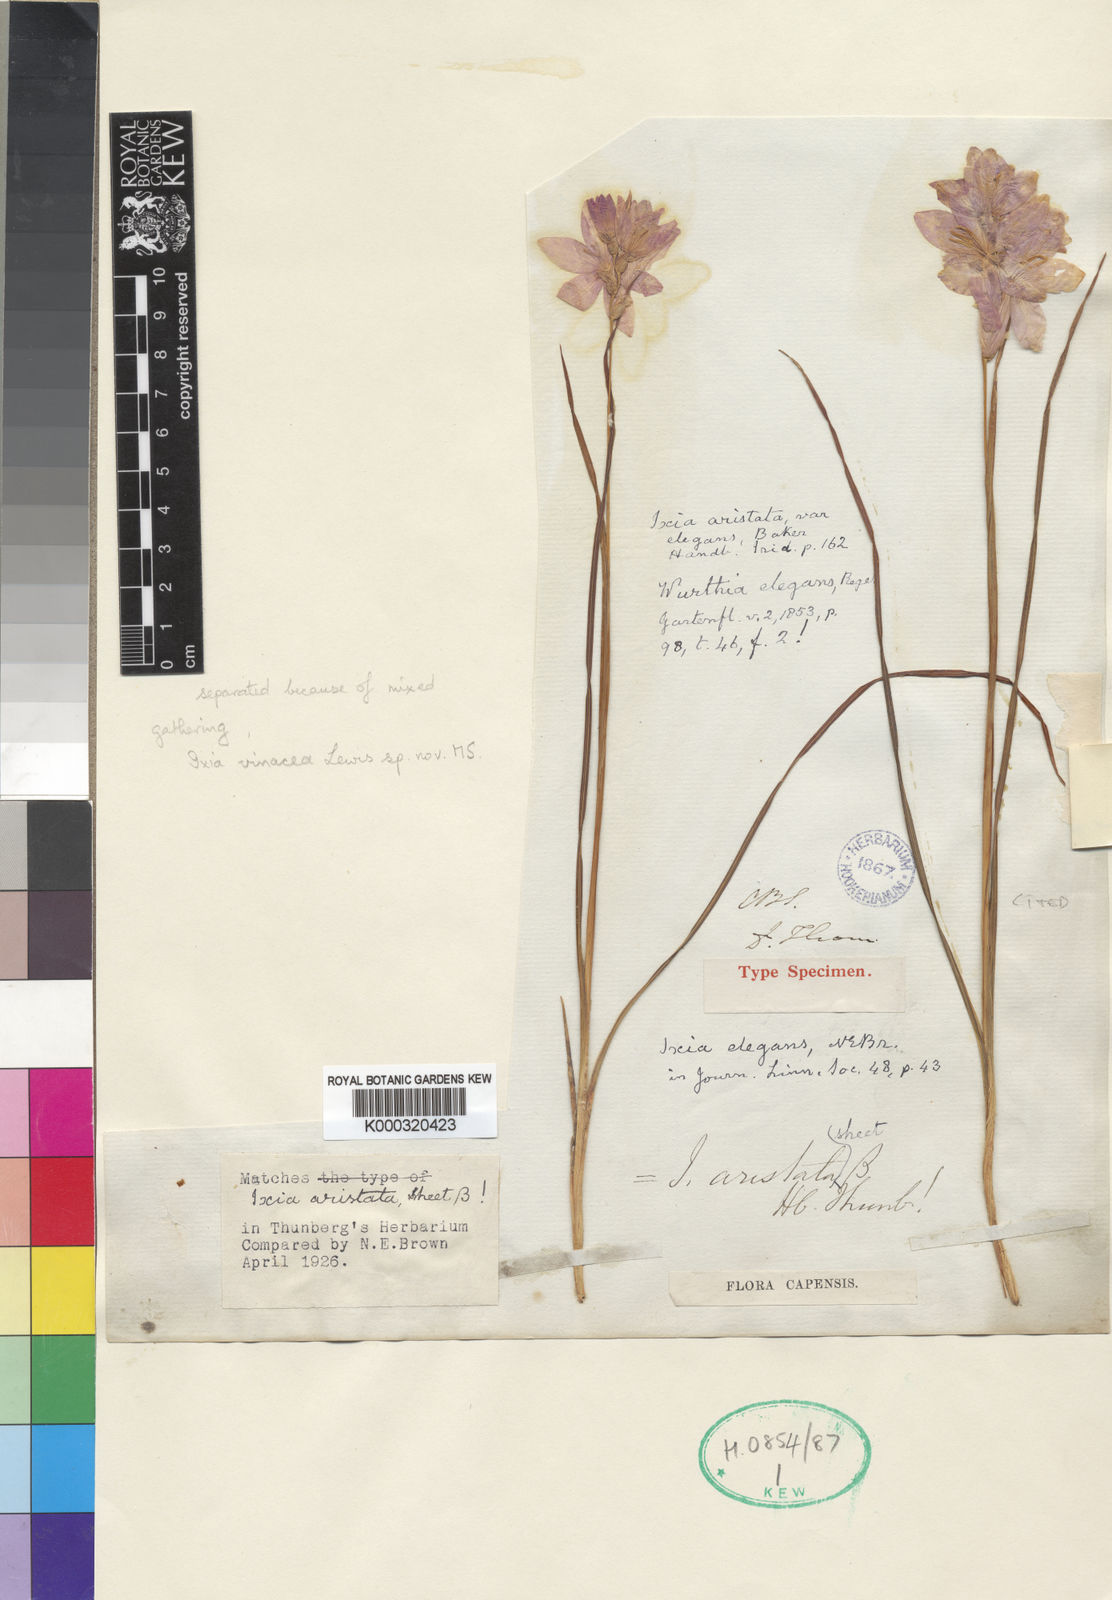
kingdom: Plantae
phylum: Tracheophyta
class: Liliopsida
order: Asparagales
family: Iridaceae
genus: Ixia
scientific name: Ixia patens
